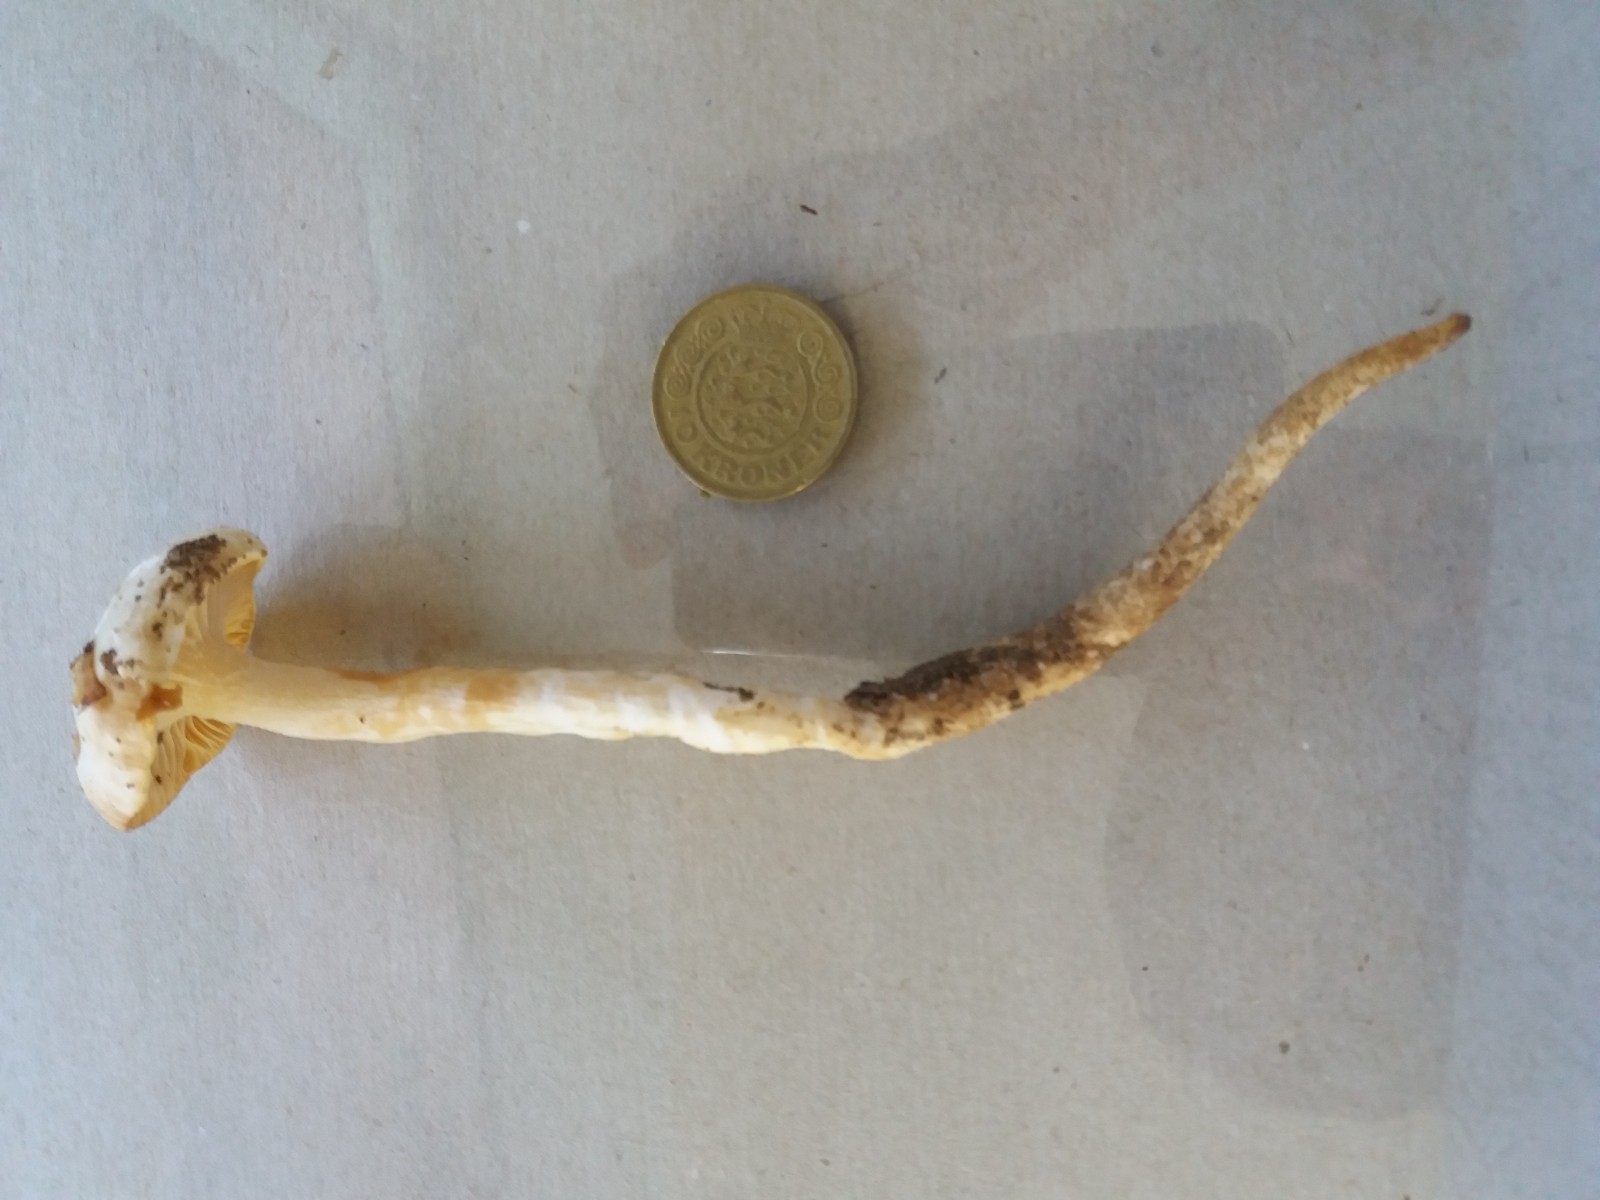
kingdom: Fungi
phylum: Basidiomycota
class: Agaricomycetes
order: Agaricales
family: Hygrophoraceae
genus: Hygrophorus
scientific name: Hygrophorus discoxanthus
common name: ildelugtende sneglehat
